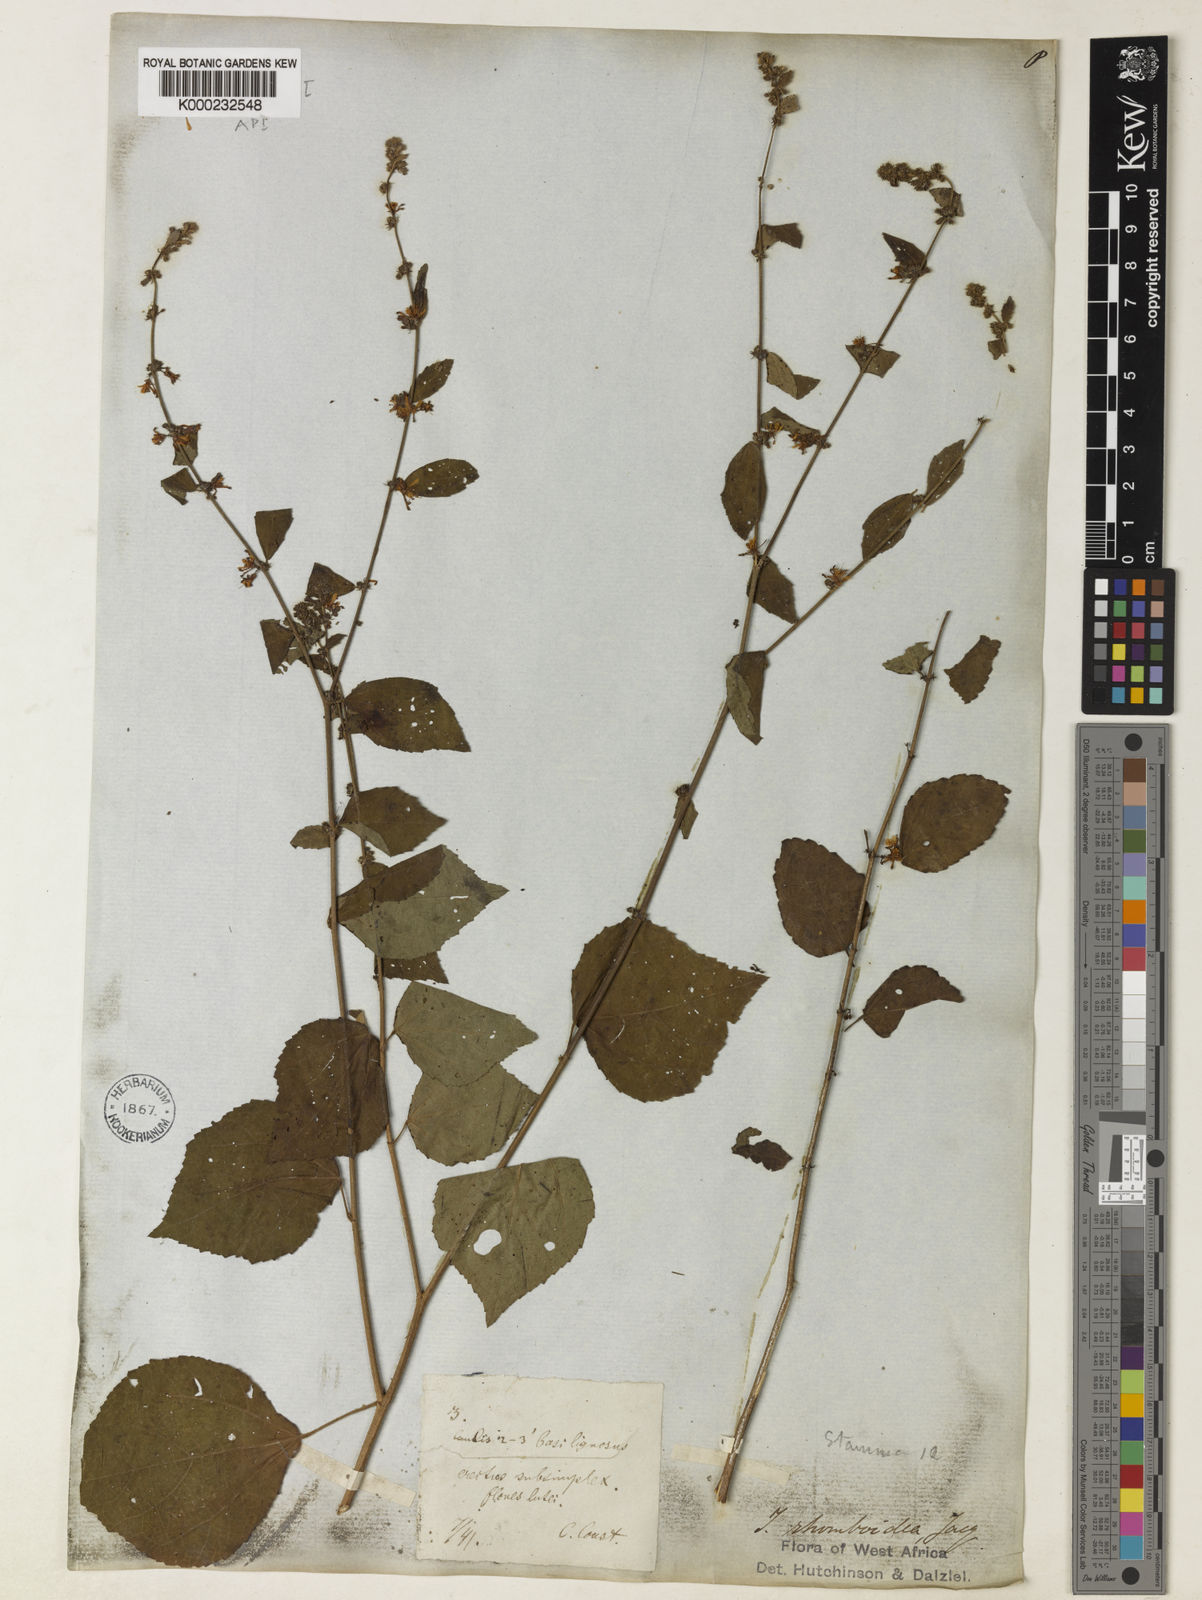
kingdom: Plantae
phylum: Tracheophyta
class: Magnoliopsida
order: Malvales
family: Malvaceae
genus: Triumfetta
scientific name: Triumfetta rhomboidea
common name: Diamond burbark
